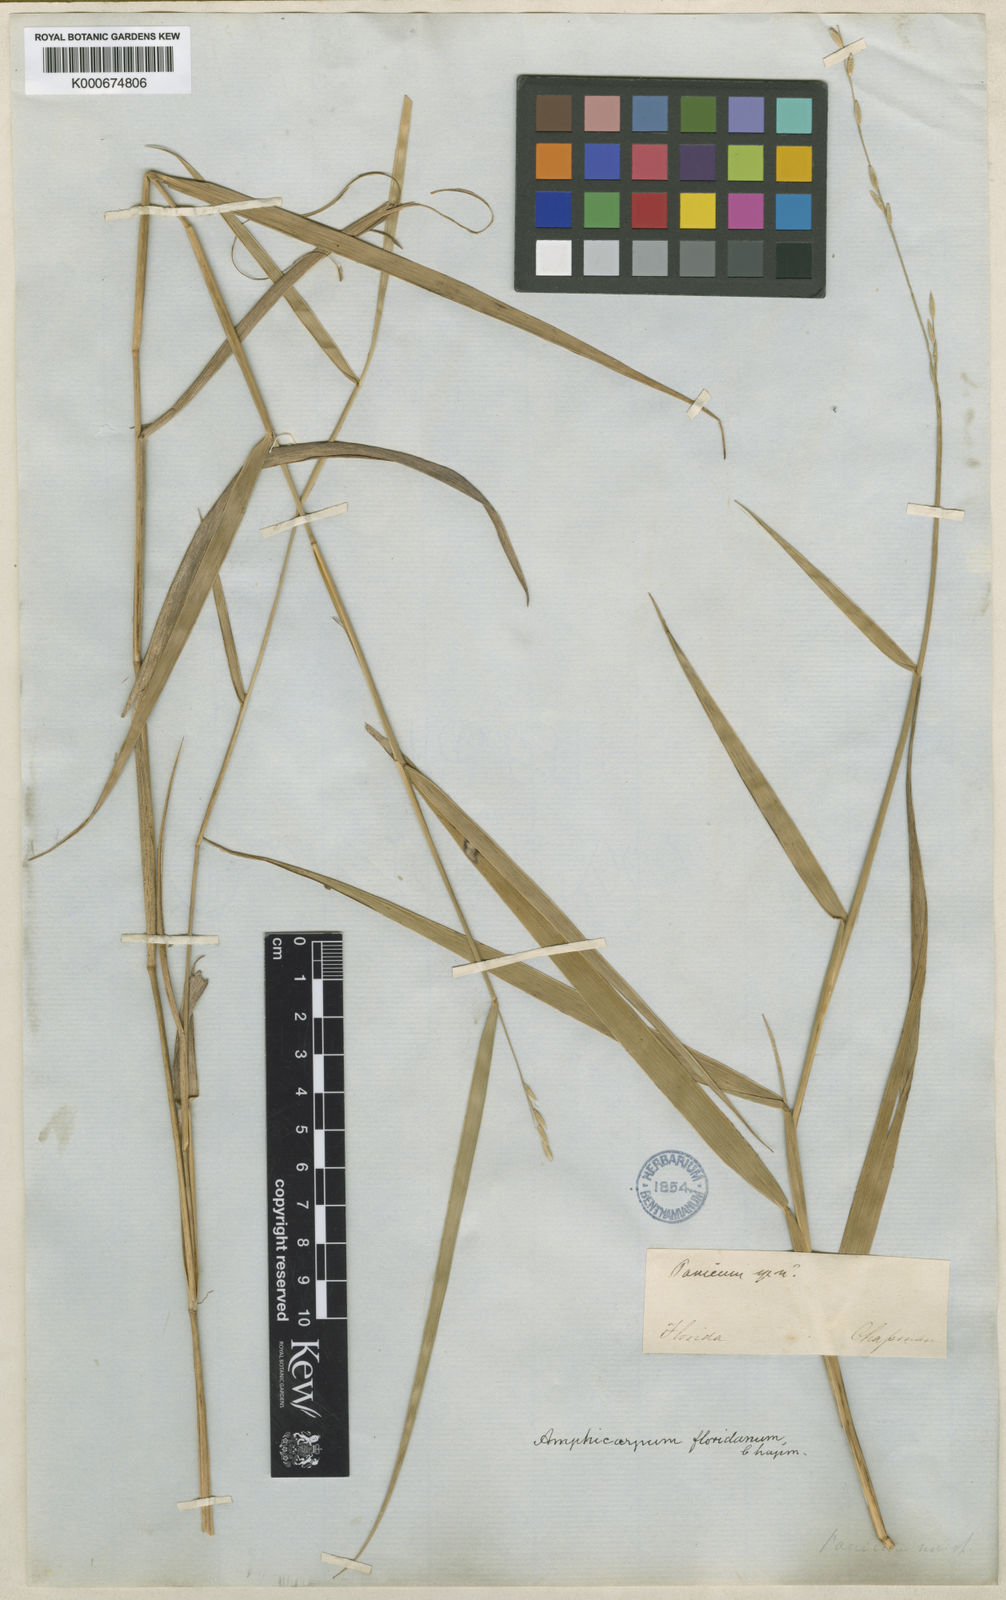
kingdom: Plantae
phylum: Tracheophyta
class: Liliopsida
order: Poales
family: Poaceae
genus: Amphicarpum
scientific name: Amphicarpum muehlenbergianum
